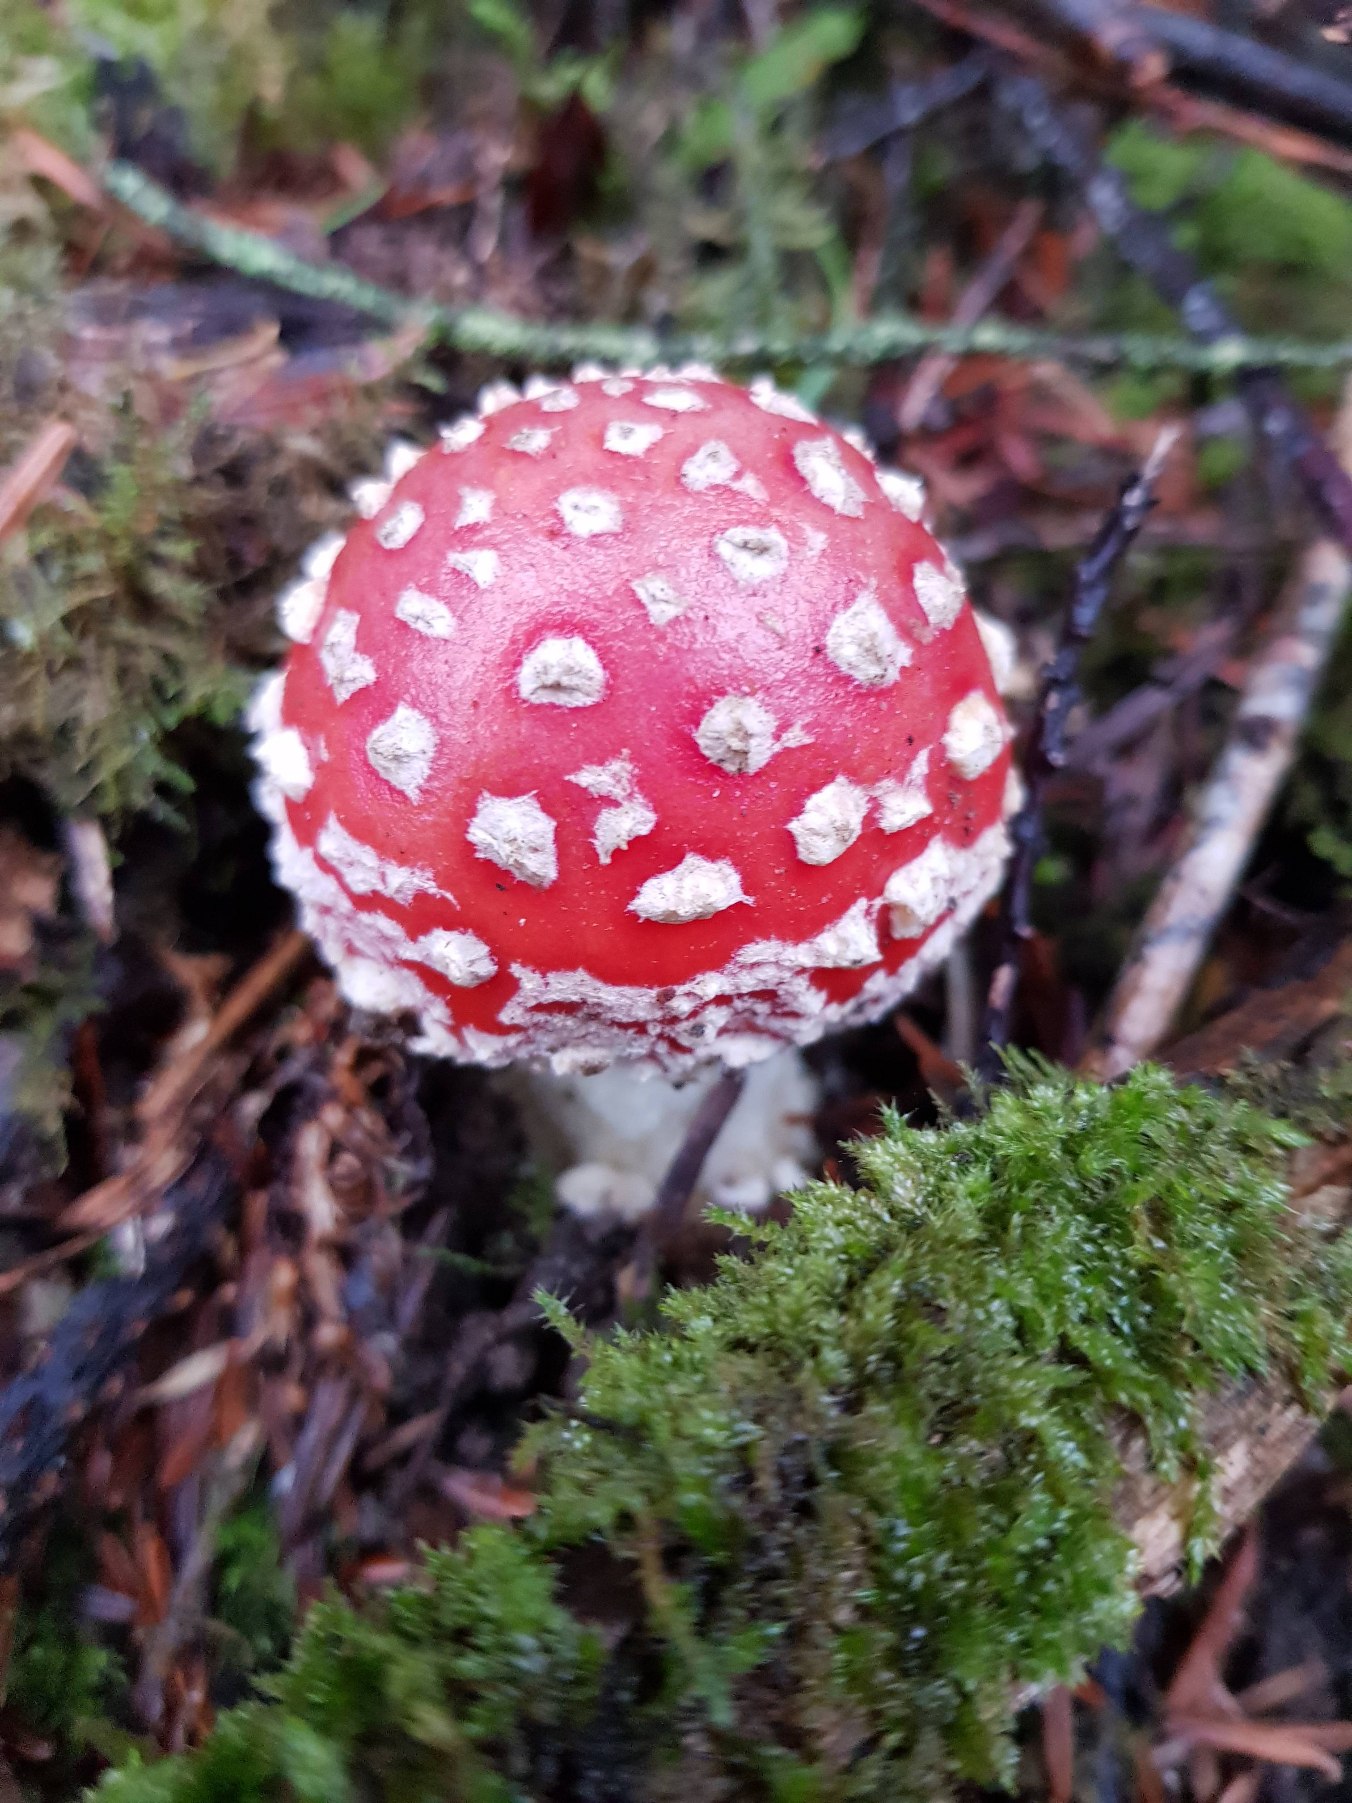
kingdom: Fungi
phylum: Basidiomycota
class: Agaricomycetes
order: Agaricales
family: Amanitaceae
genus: Amanita
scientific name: Amanita muscaria
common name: Rød fluesvamp
